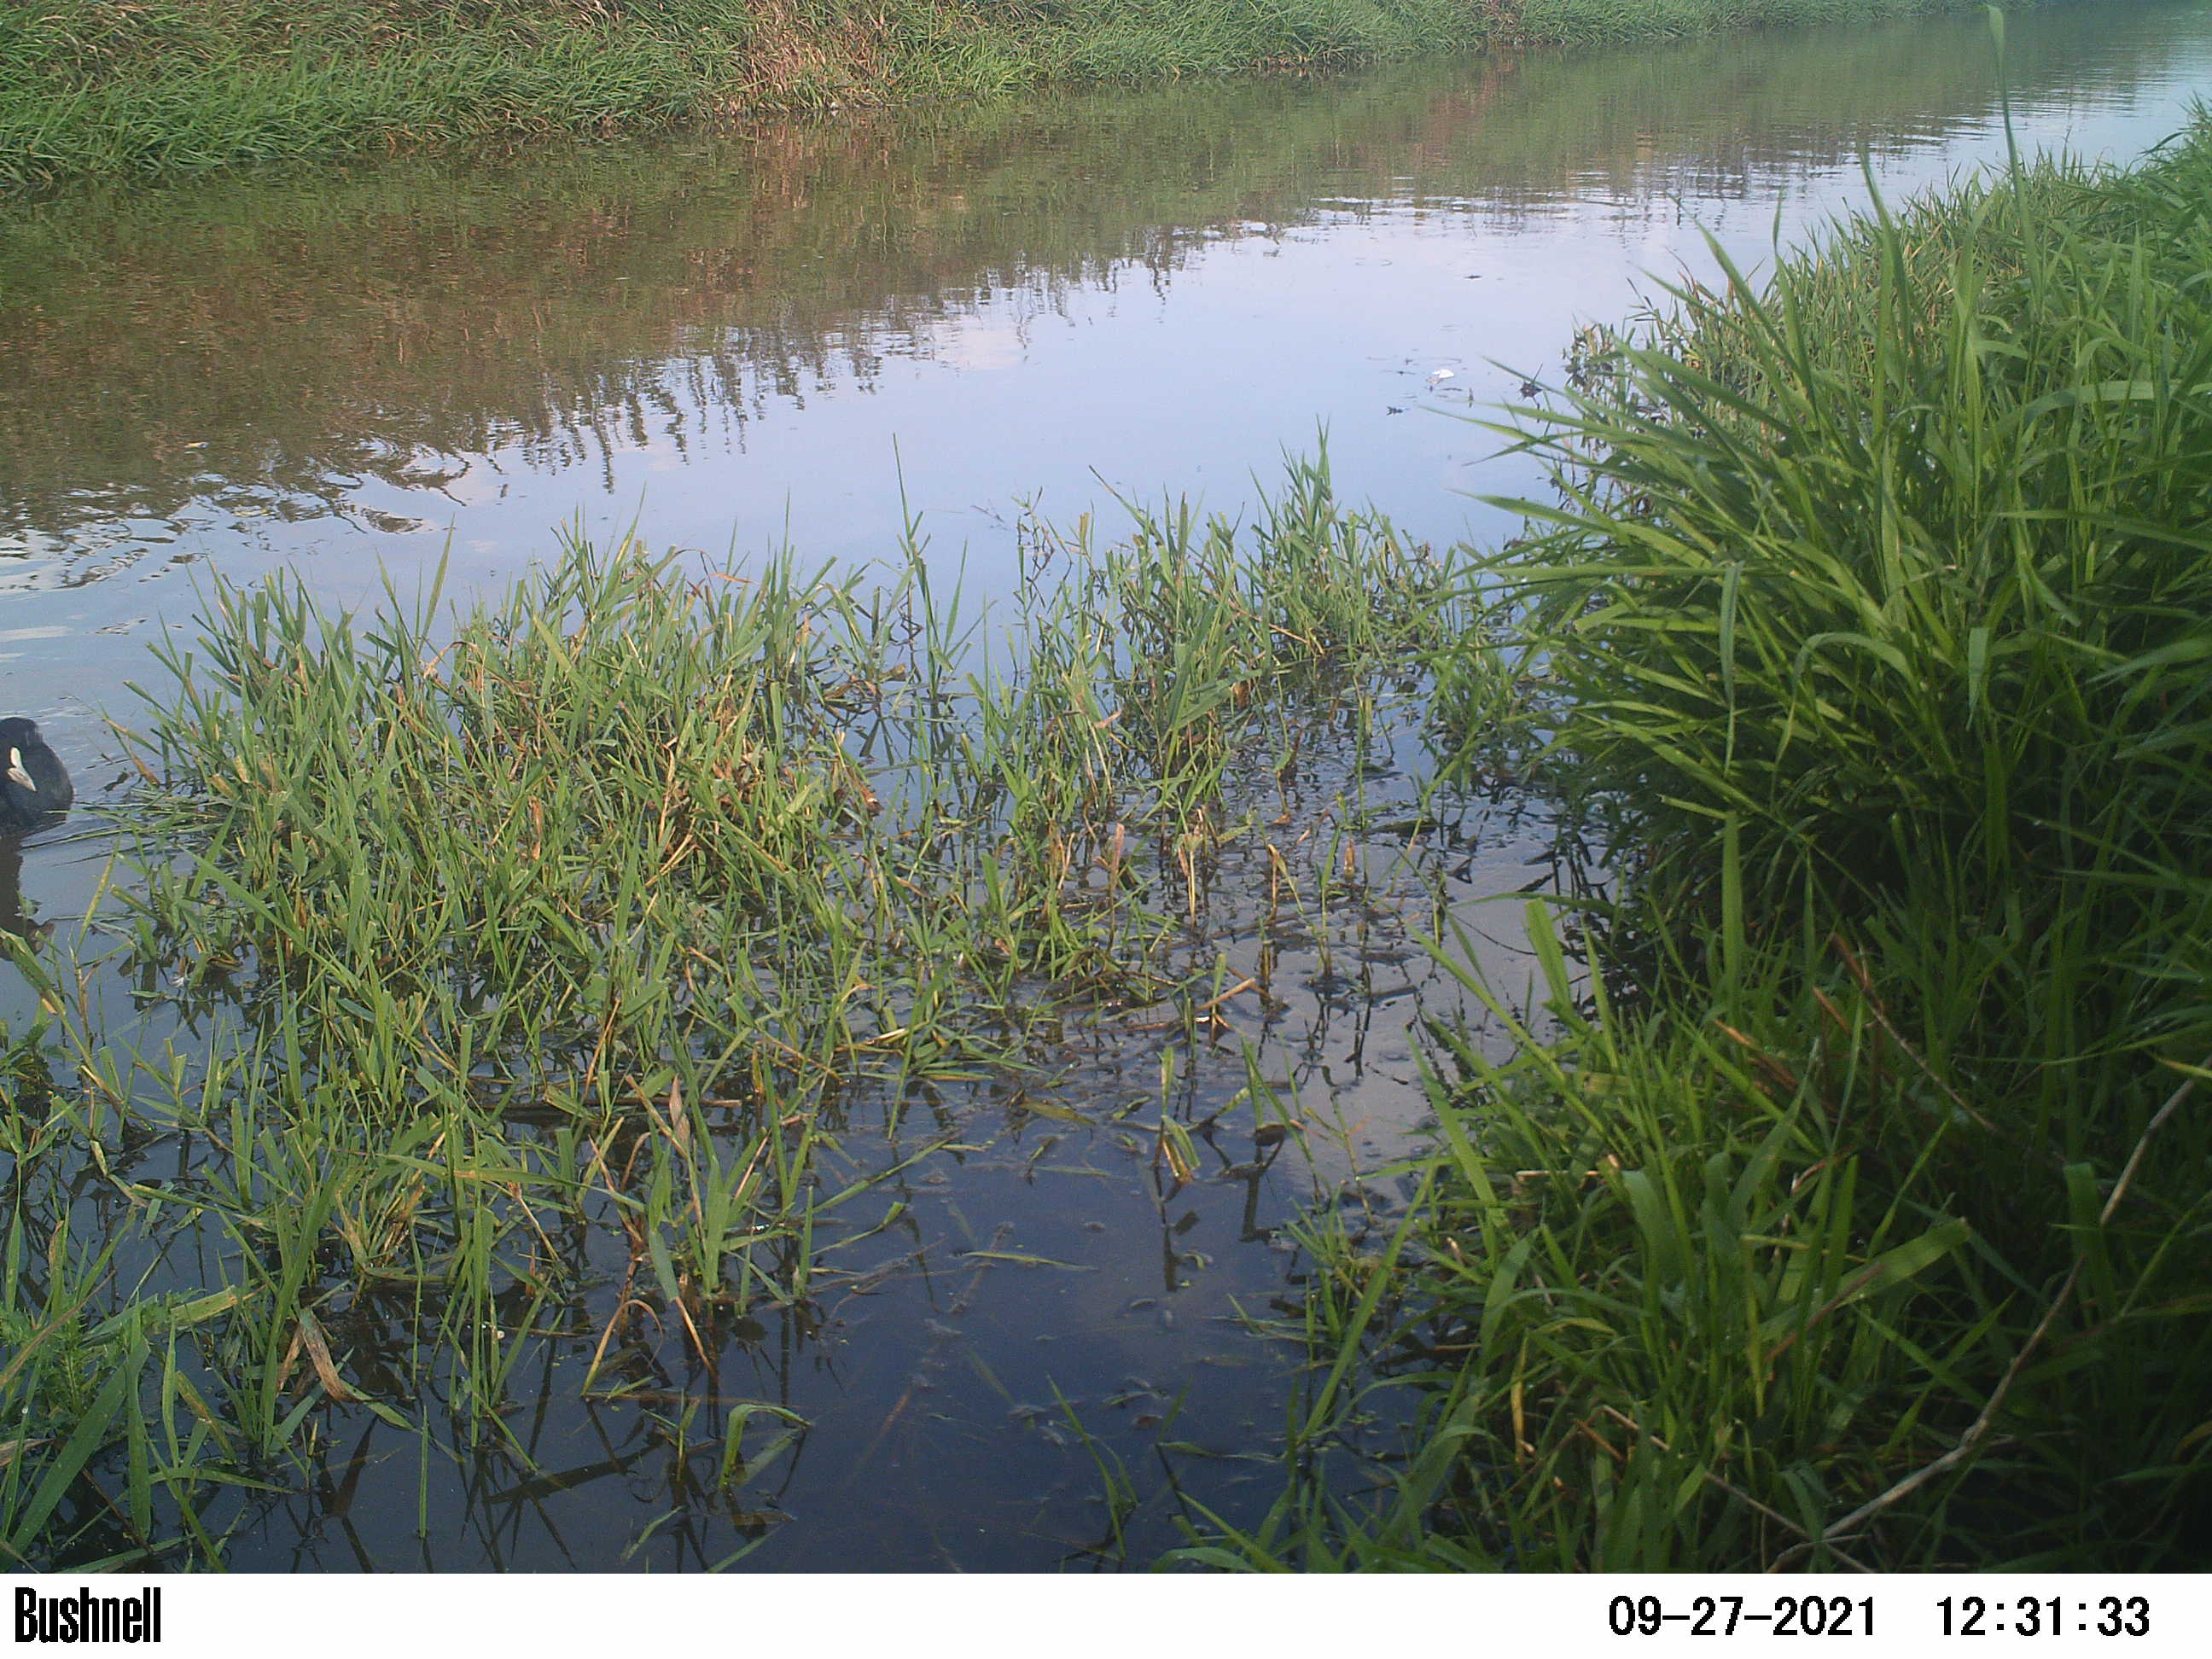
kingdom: Animalia
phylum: Chordata
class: Aves
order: Gruiformes
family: Rallidae
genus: Fulica
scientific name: Fulica atra
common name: Eurasian coot
